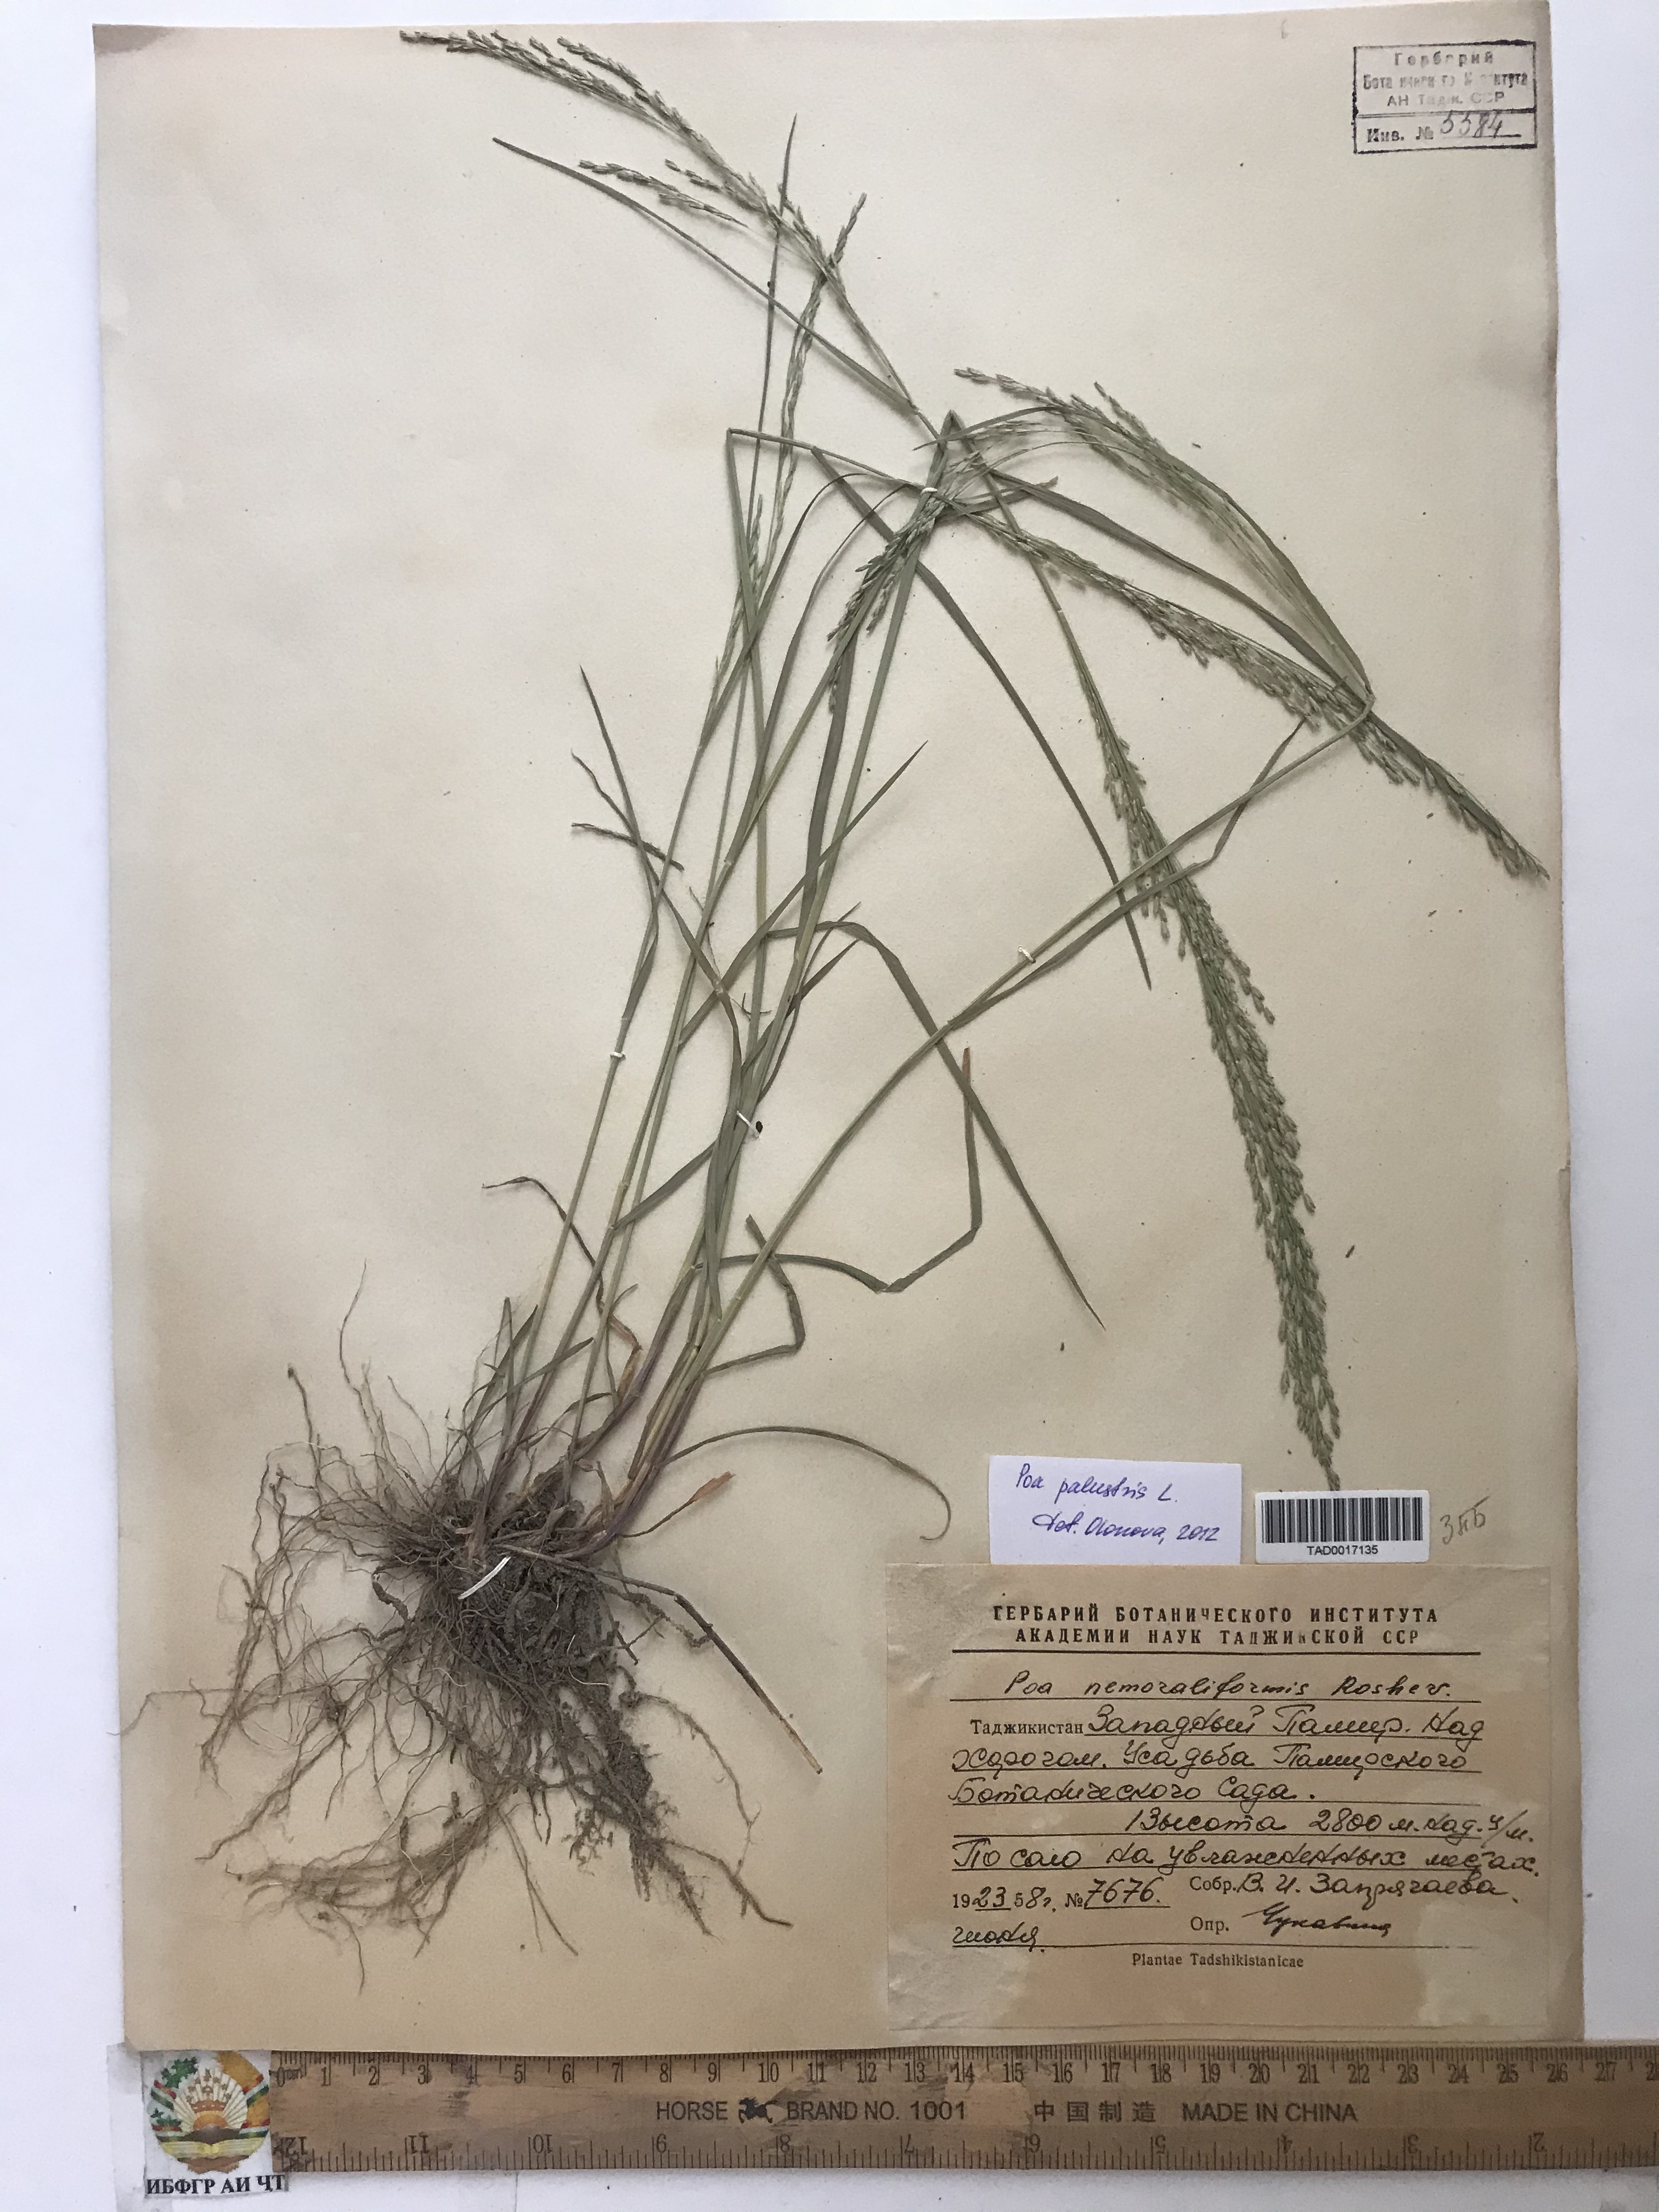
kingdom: Plantae
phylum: Tracheophyta
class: Liliopsida
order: Poales
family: Poaceae
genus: Poa
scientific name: Poa urssulensis
